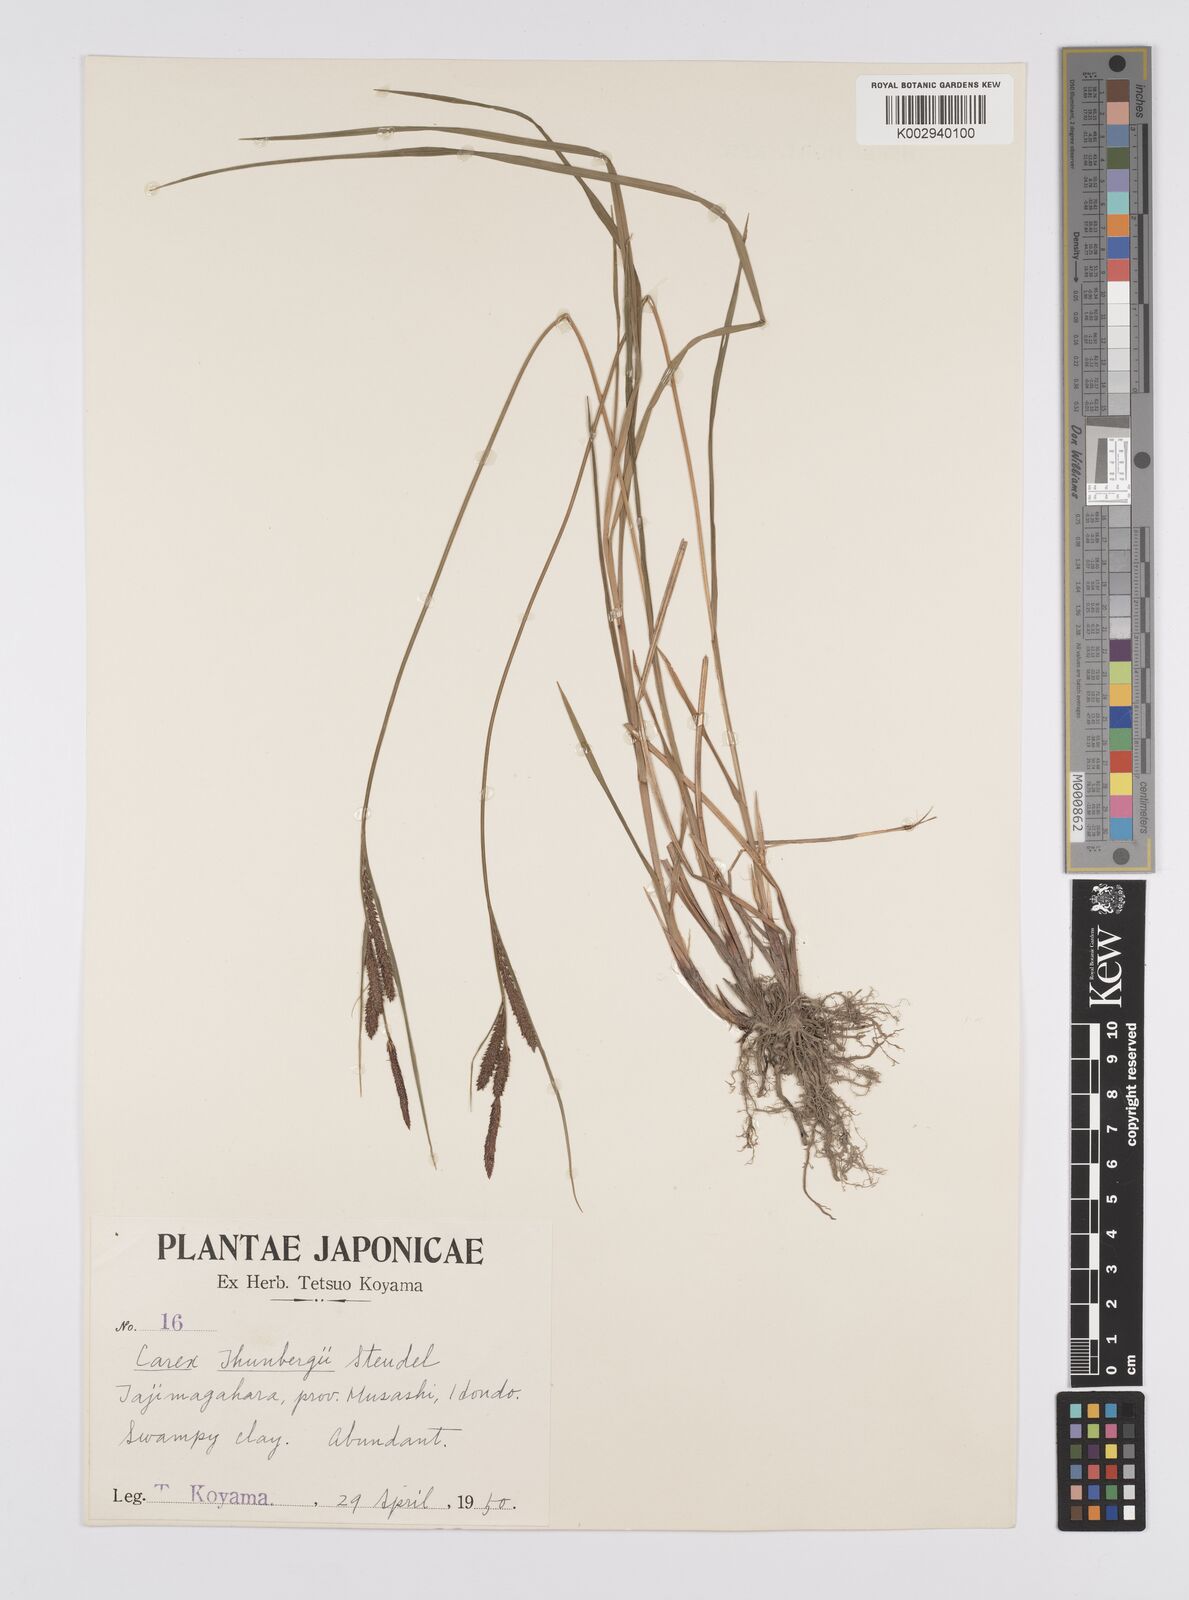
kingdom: Plantae
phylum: Tracheophyta
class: Liliopsida
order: Poales
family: Cyperaceae
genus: Carex
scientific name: Carex thunbergii
